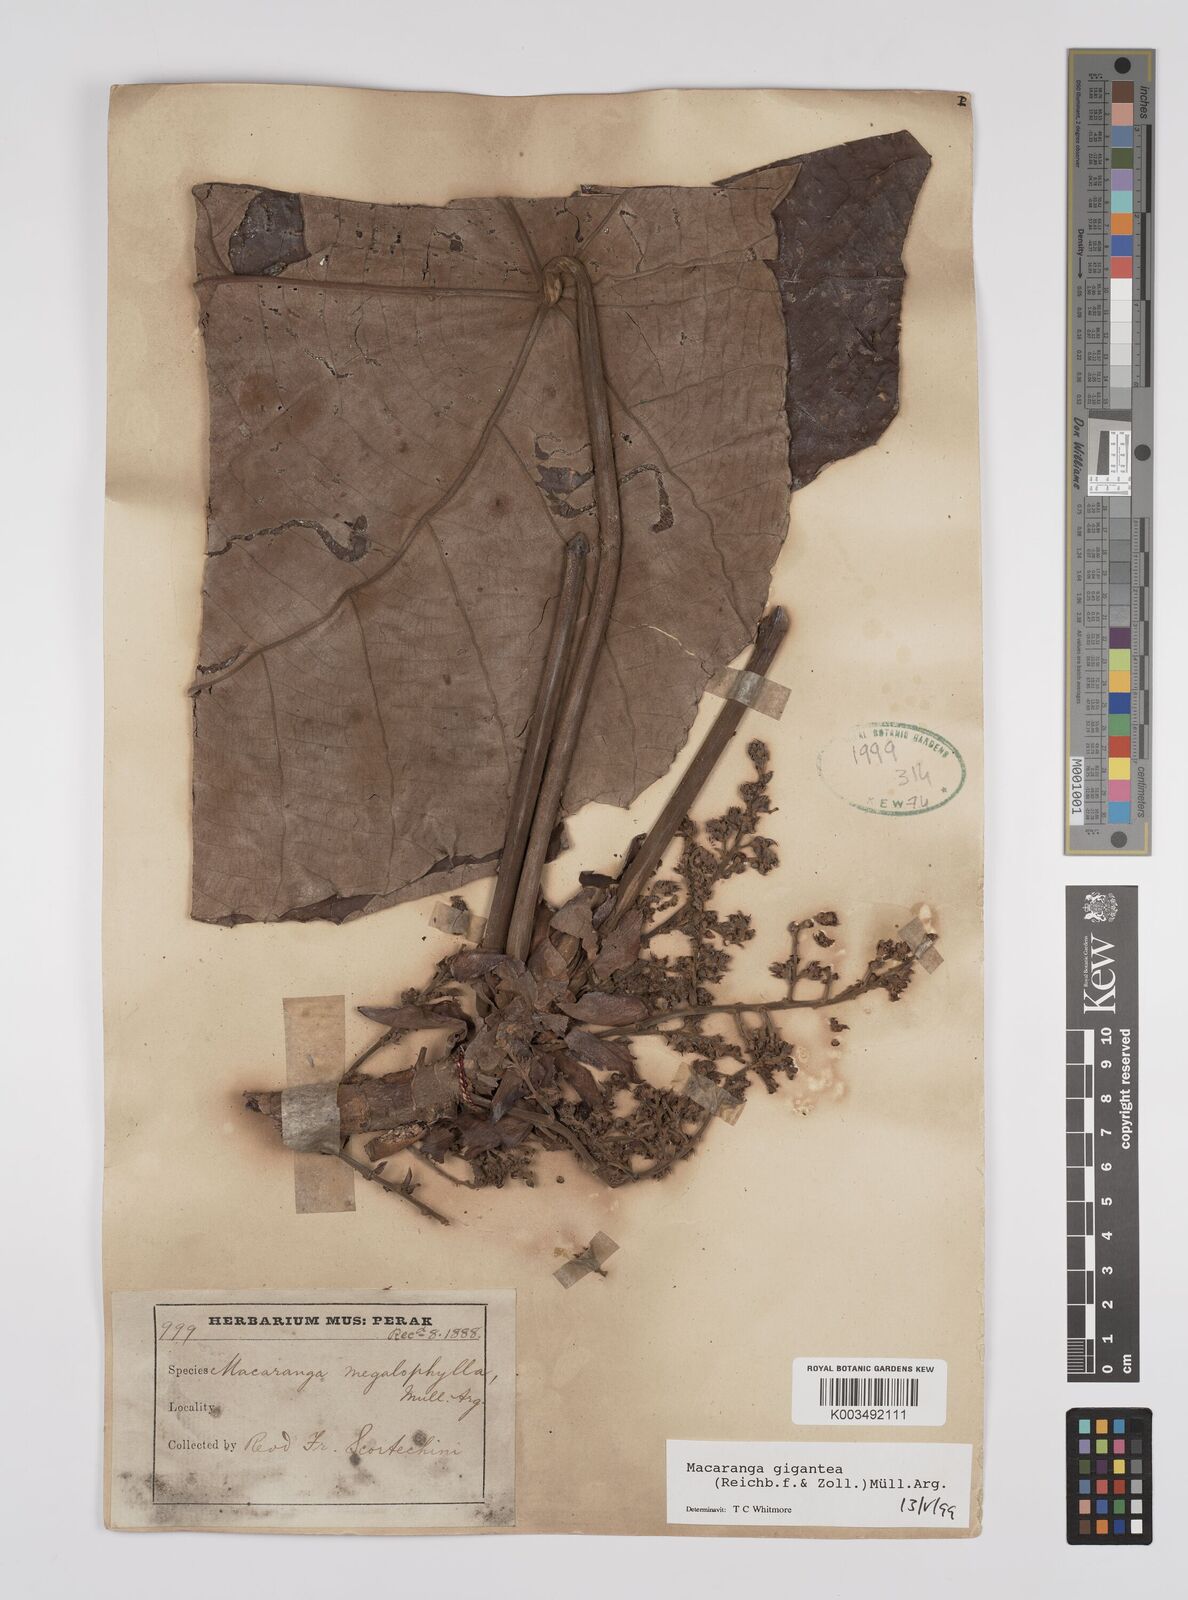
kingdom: Plantae
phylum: Tracheophyta
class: Magnoliopsida
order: Malpighiales
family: Euphorbiaceae
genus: Macaranga
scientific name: Macaranga gigantea
